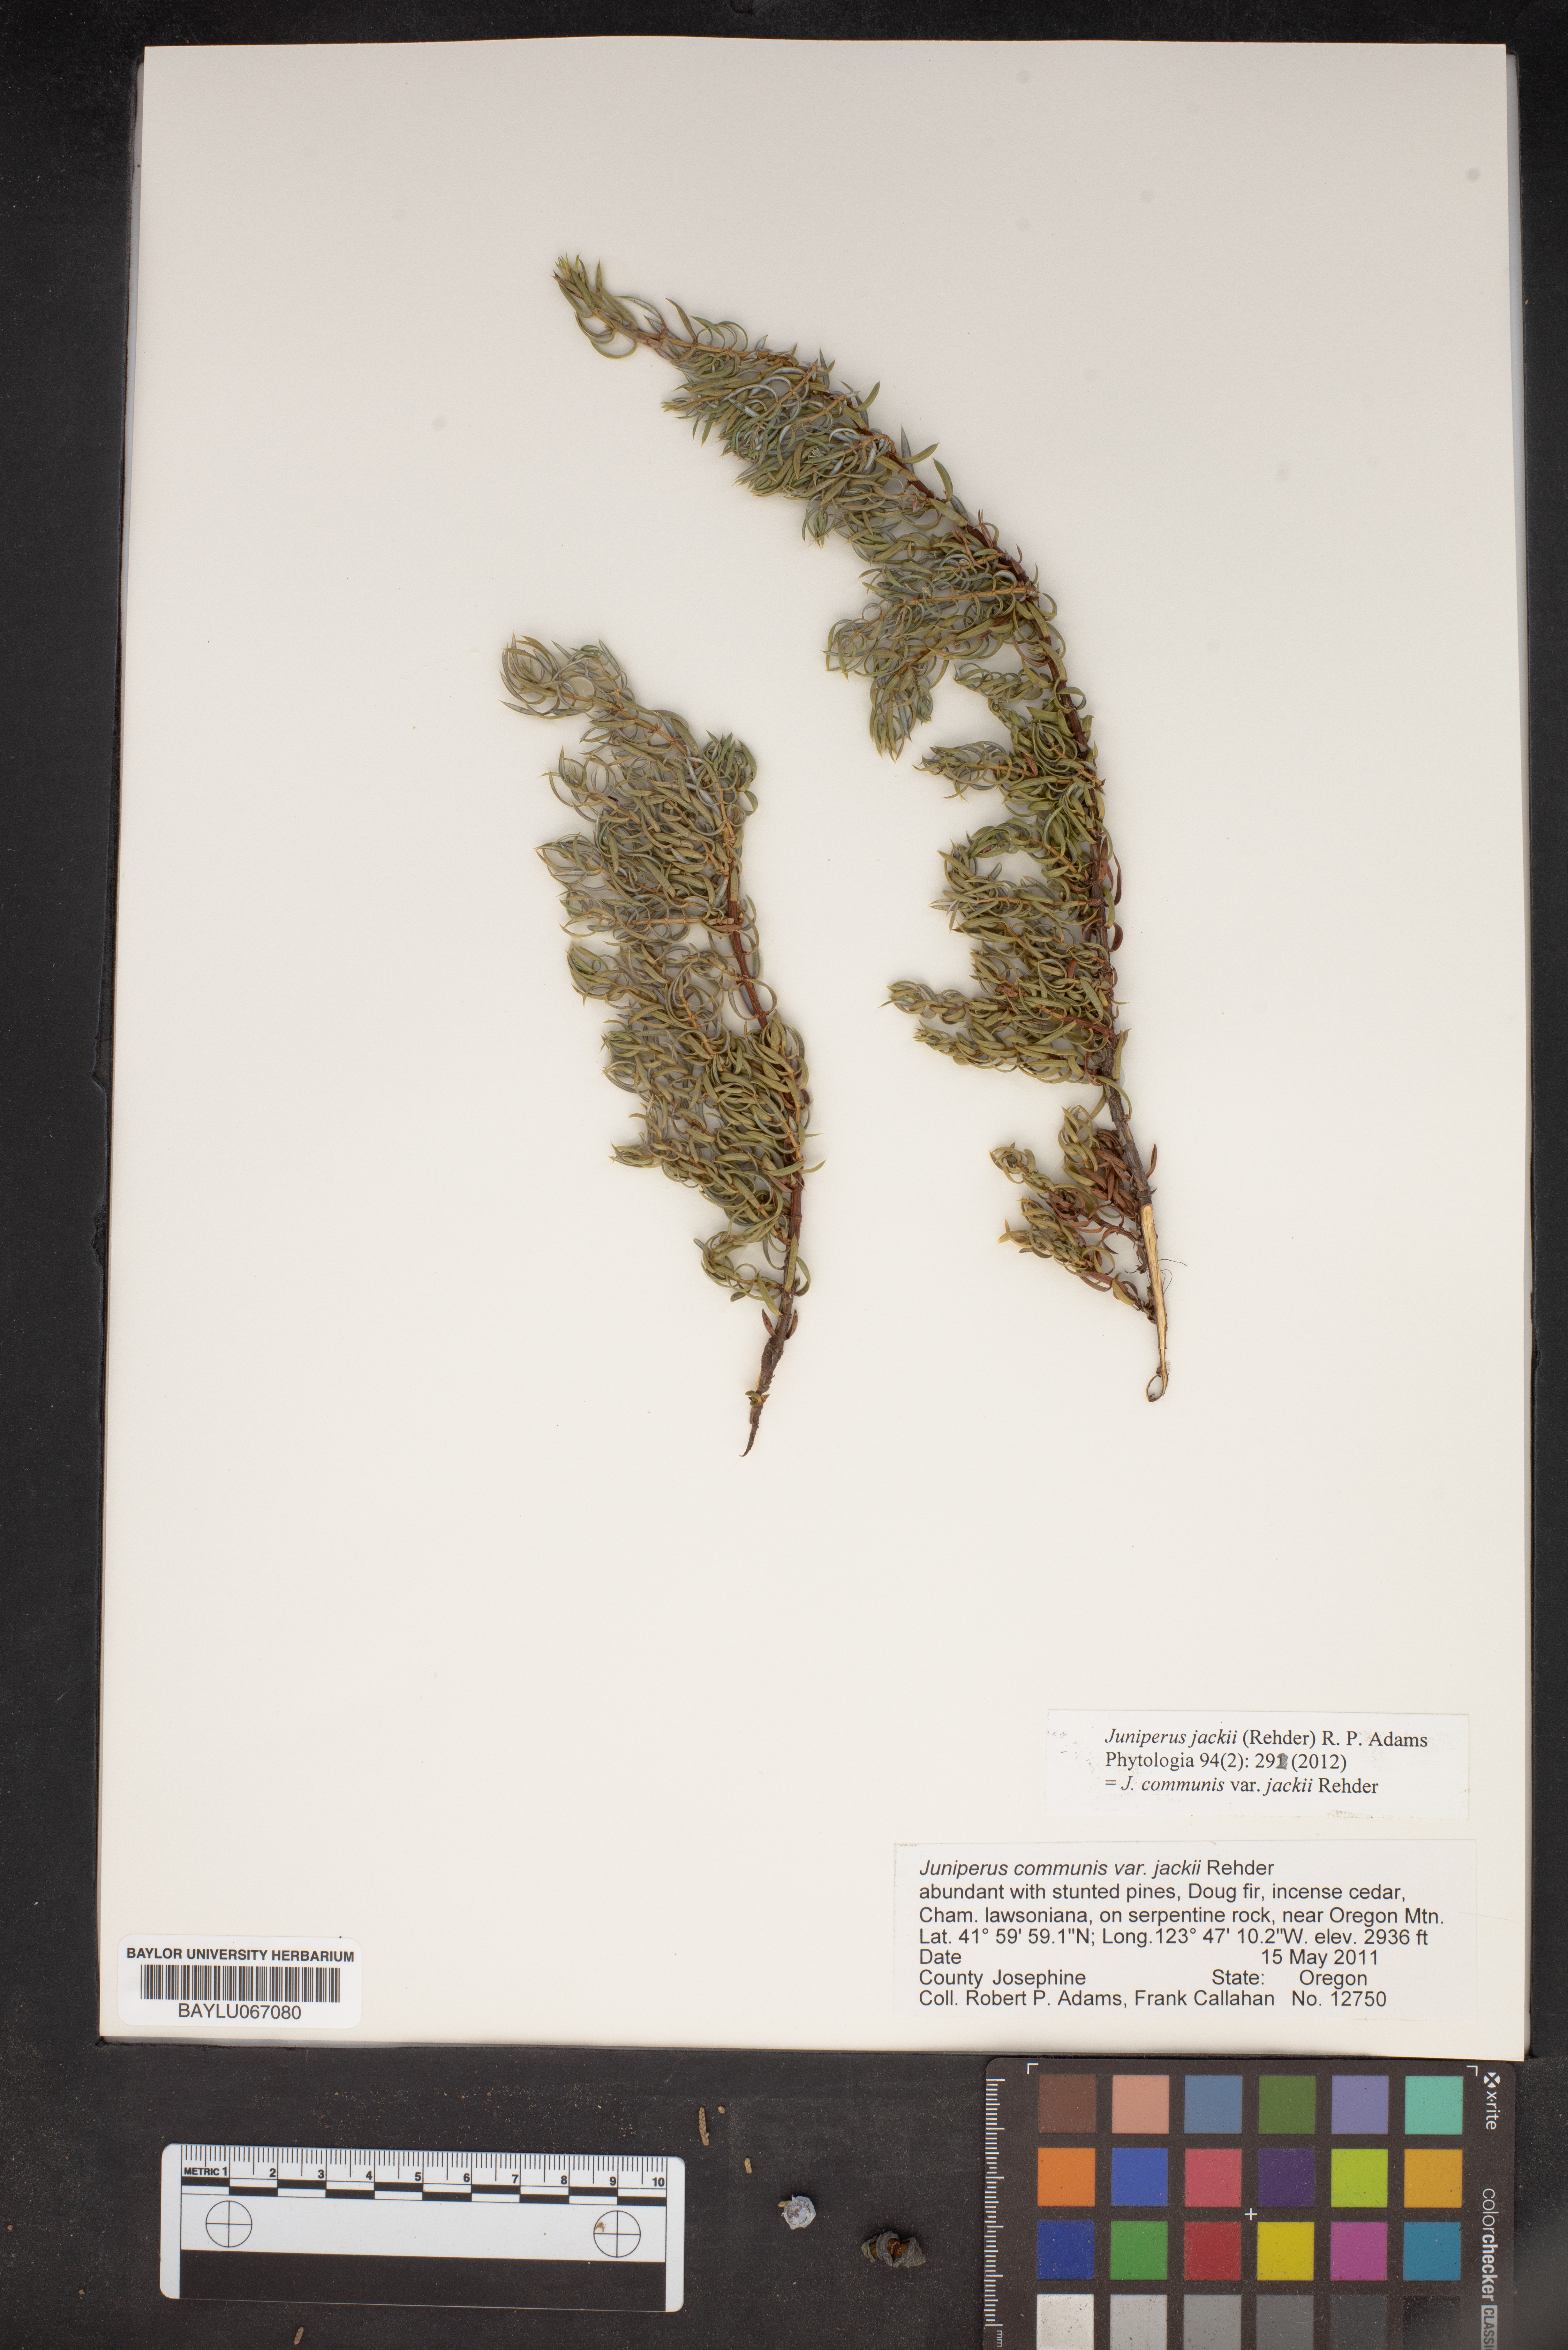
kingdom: Plantae
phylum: Tracheophyta
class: Pinopsida
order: Pinales
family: Cupressaceae
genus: Juniperus
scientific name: Juniperus communis
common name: Common juniper
